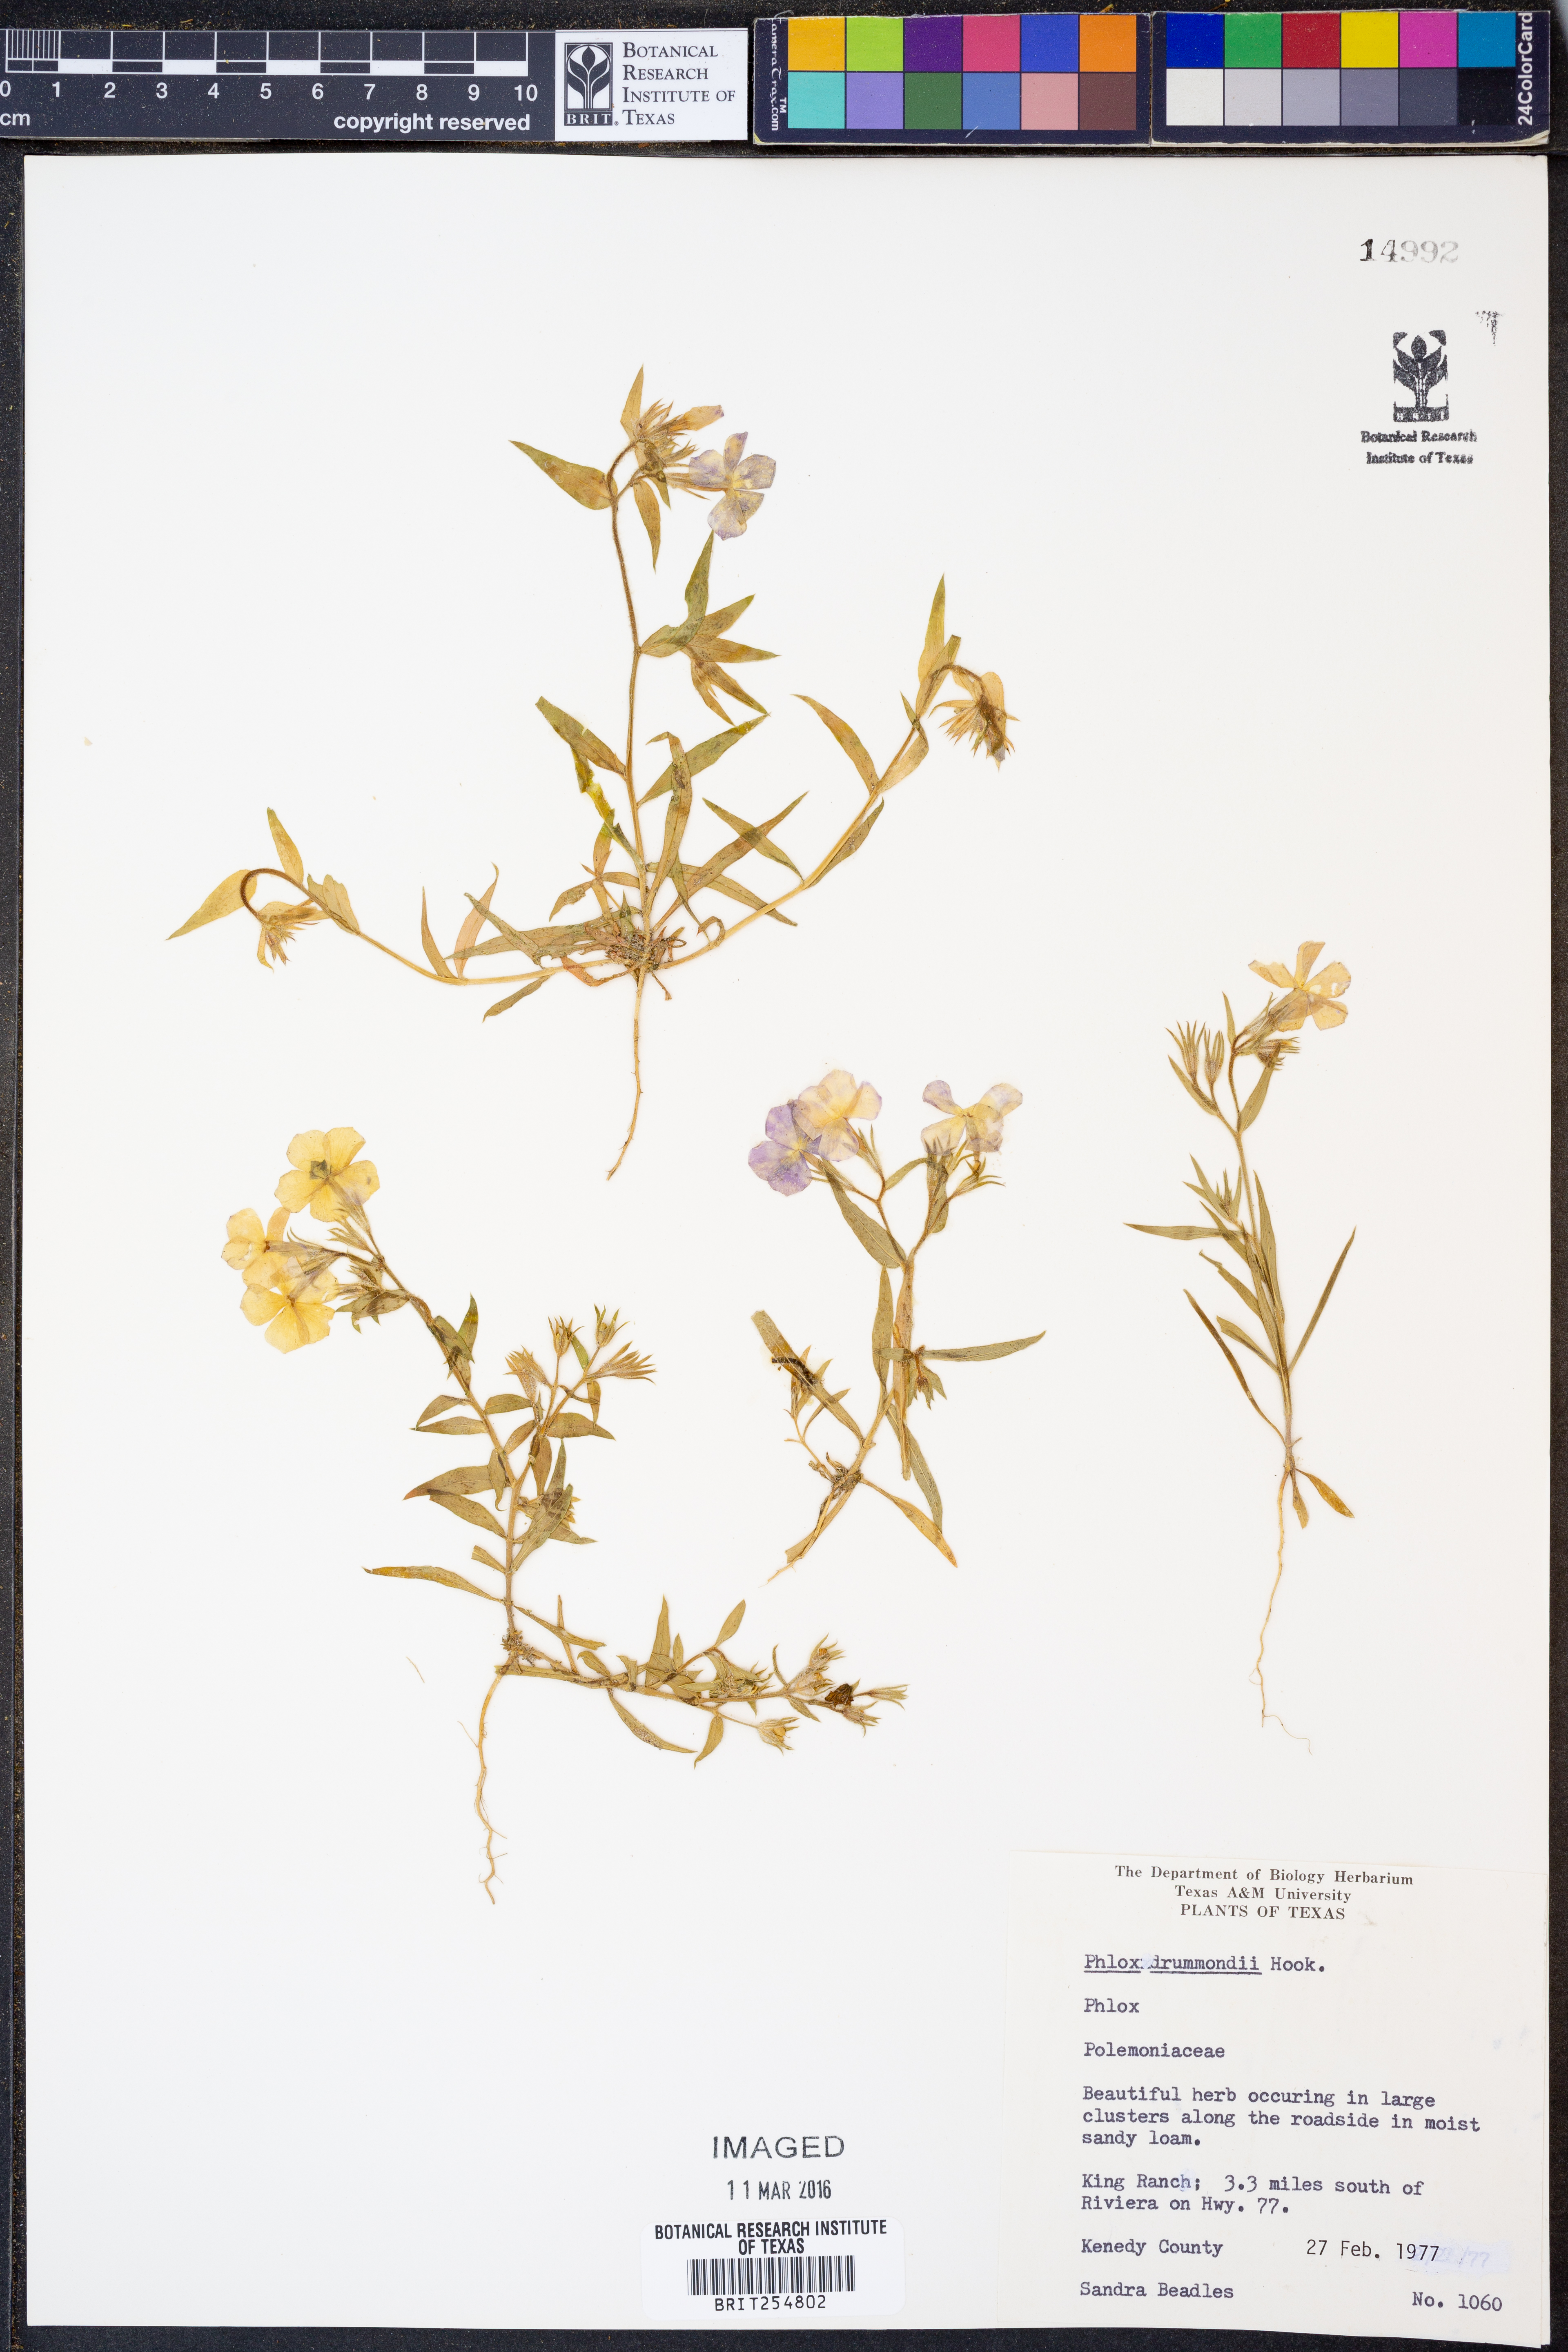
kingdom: Plantae
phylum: Tracheophyta
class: Magnoliopsida
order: Ericales
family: Polemoniaceae
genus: Phlox
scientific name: Phlox drummondii
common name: Drummond's phlox
